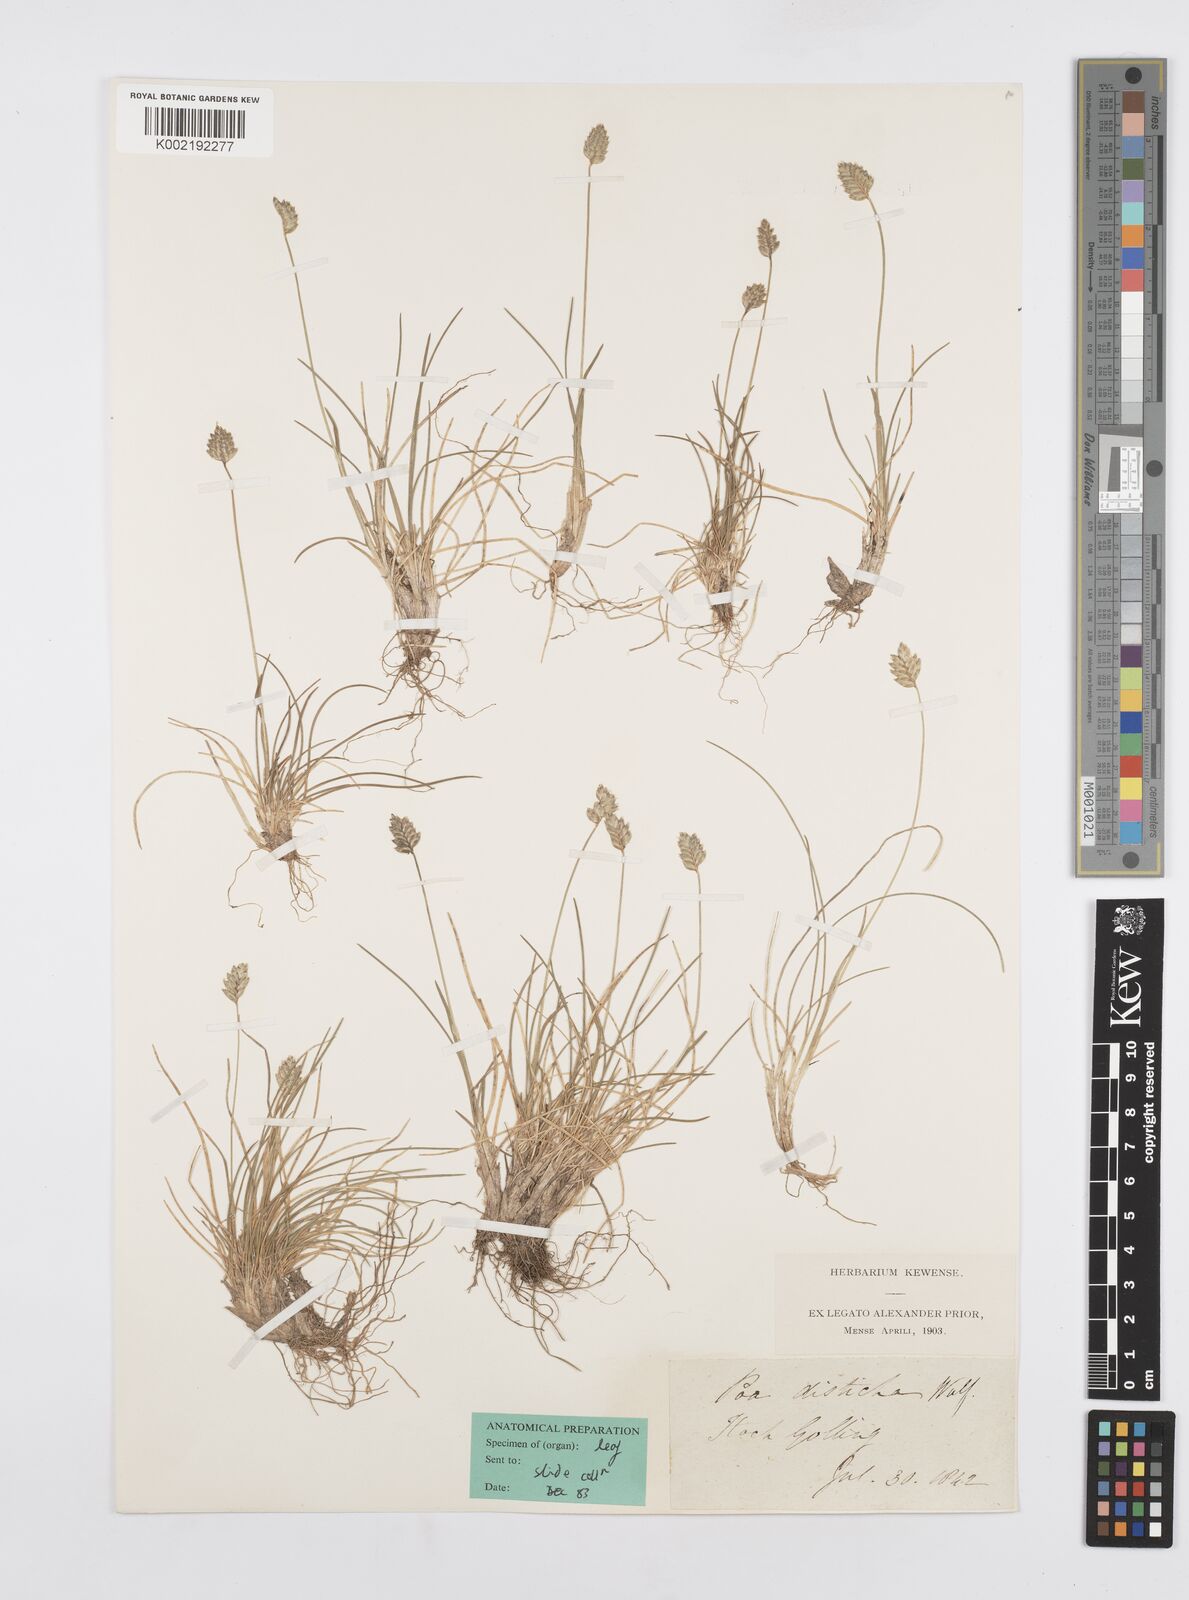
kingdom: Plantae
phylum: Tracheophyta
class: Liliopsida
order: Poales
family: Poaceae
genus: Oreochloa
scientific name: Oreochloa disticha
